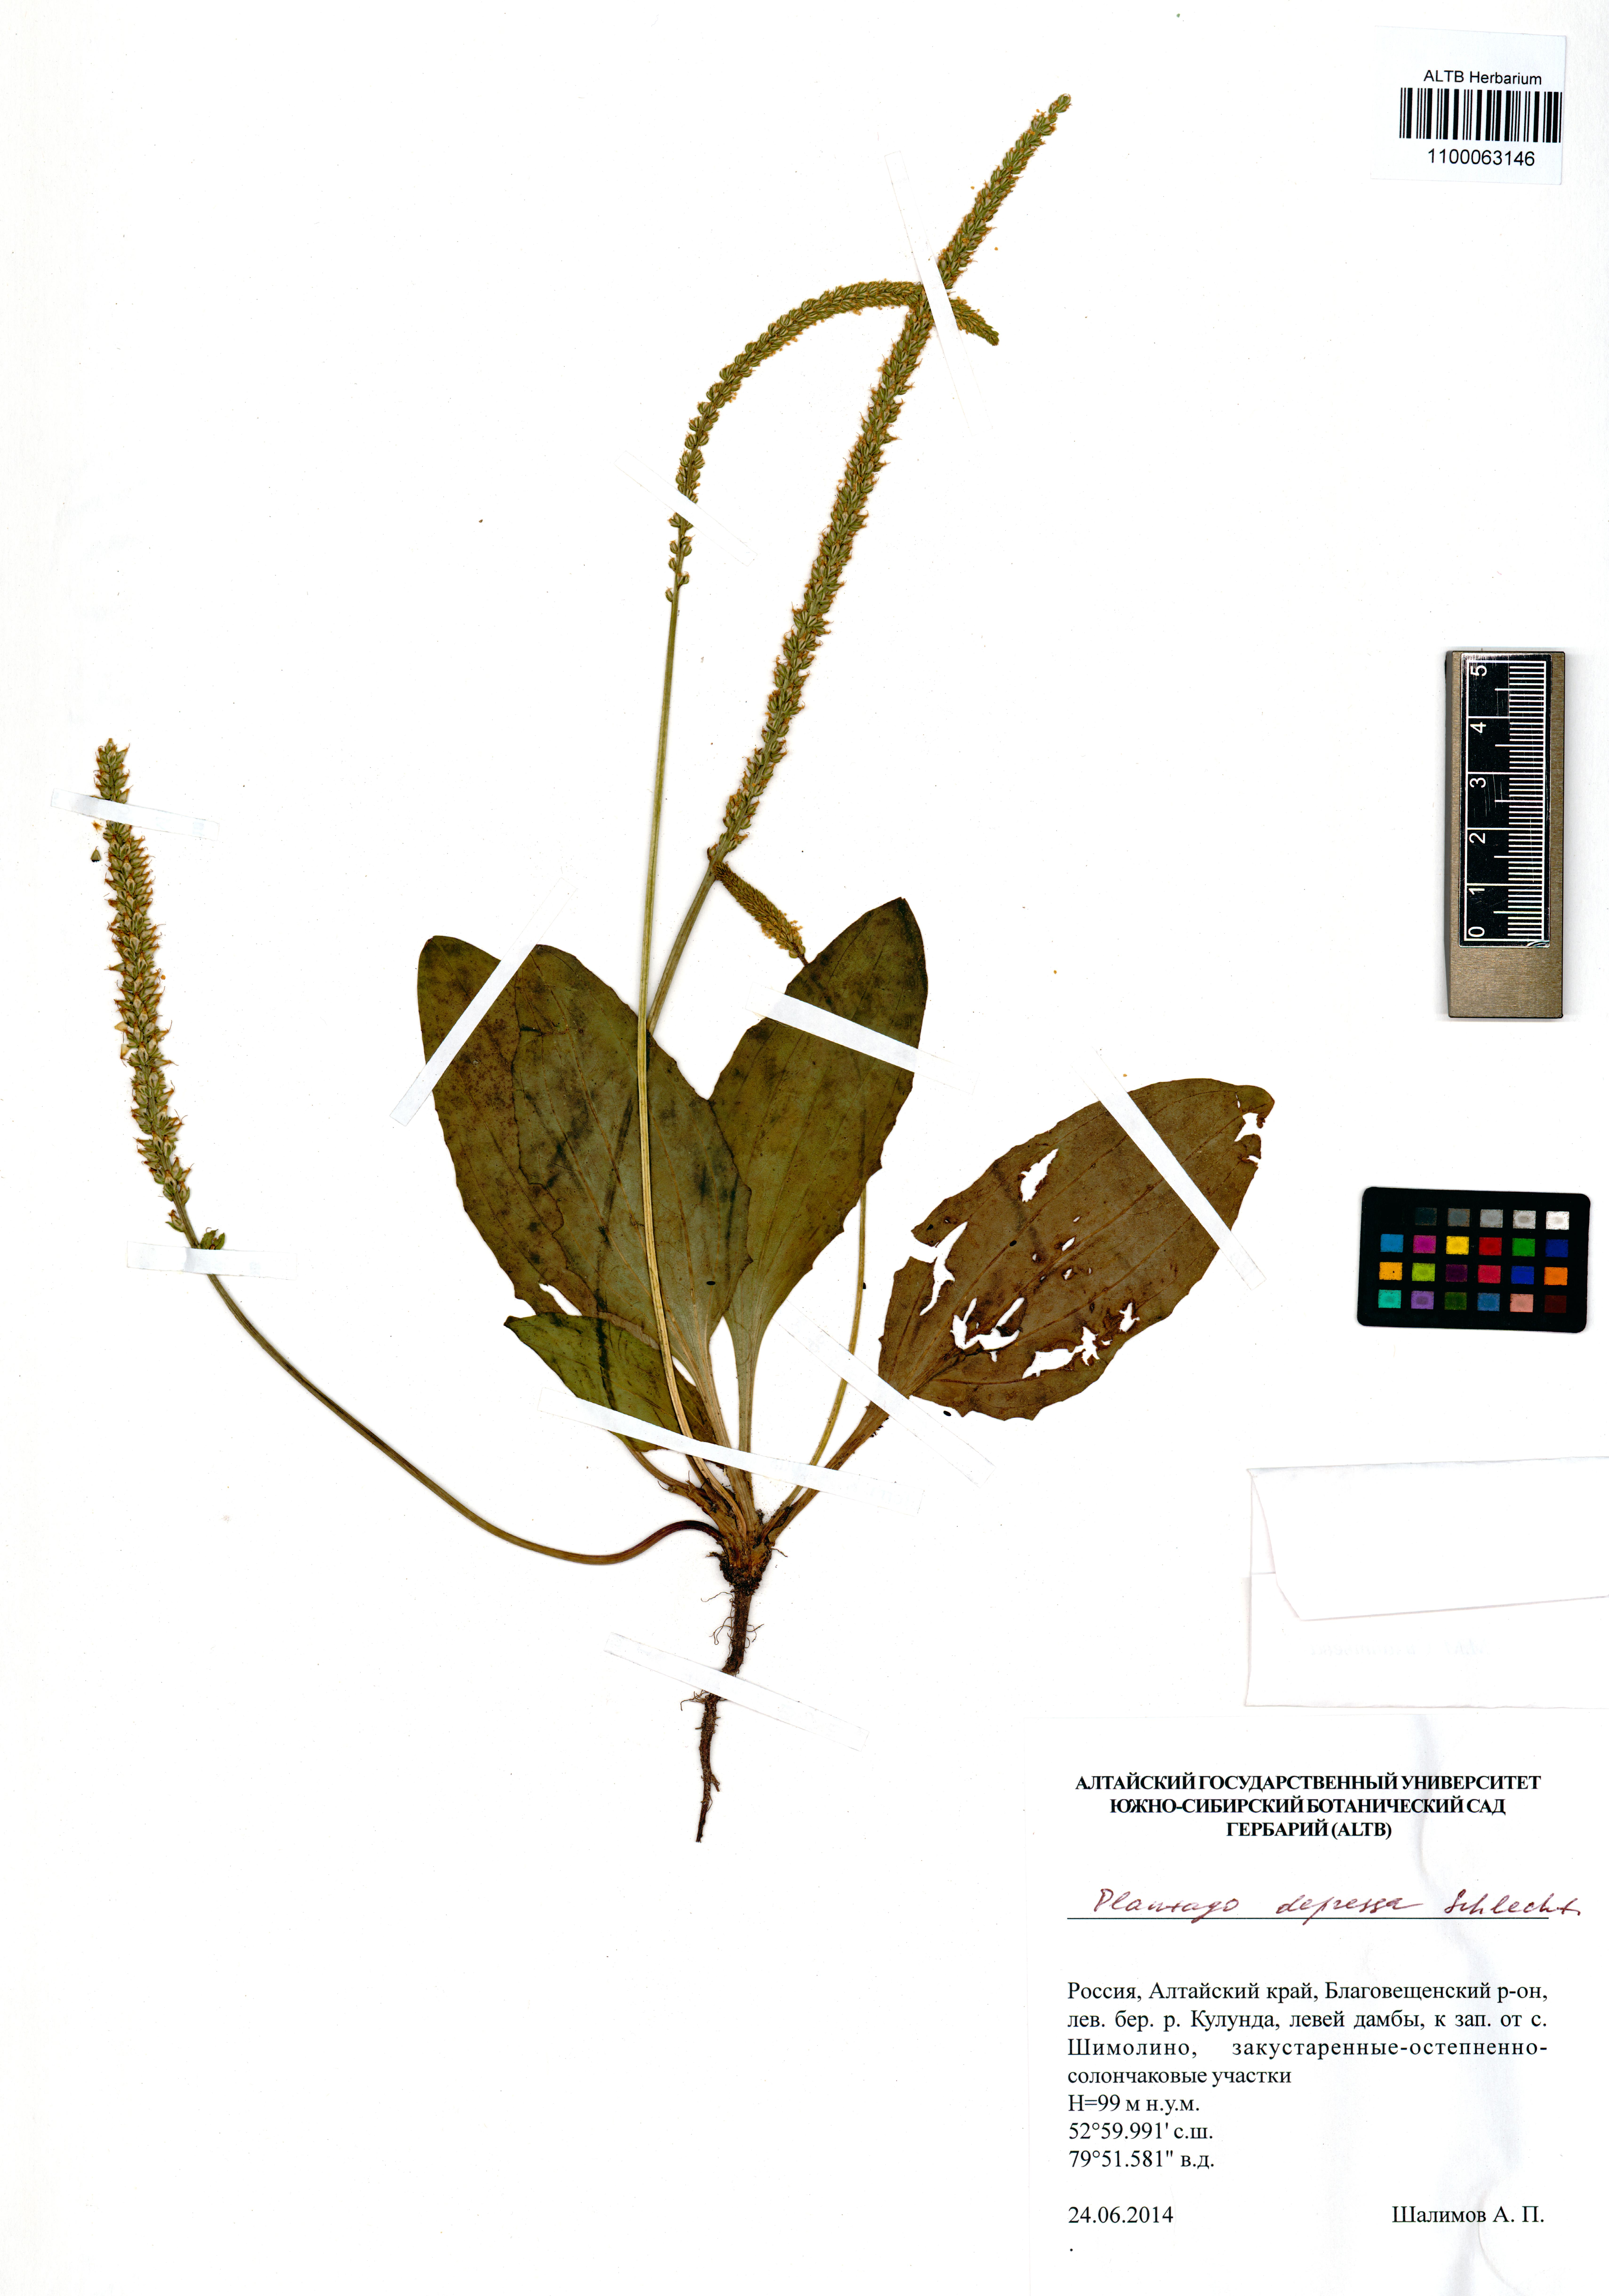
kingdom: Plantae
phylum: Tracheophyta
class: Magnoliopsida
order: Lamiales
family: Plantaginaceae
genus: Plantago
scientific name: Plantago depressa
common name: Depressed plantain
